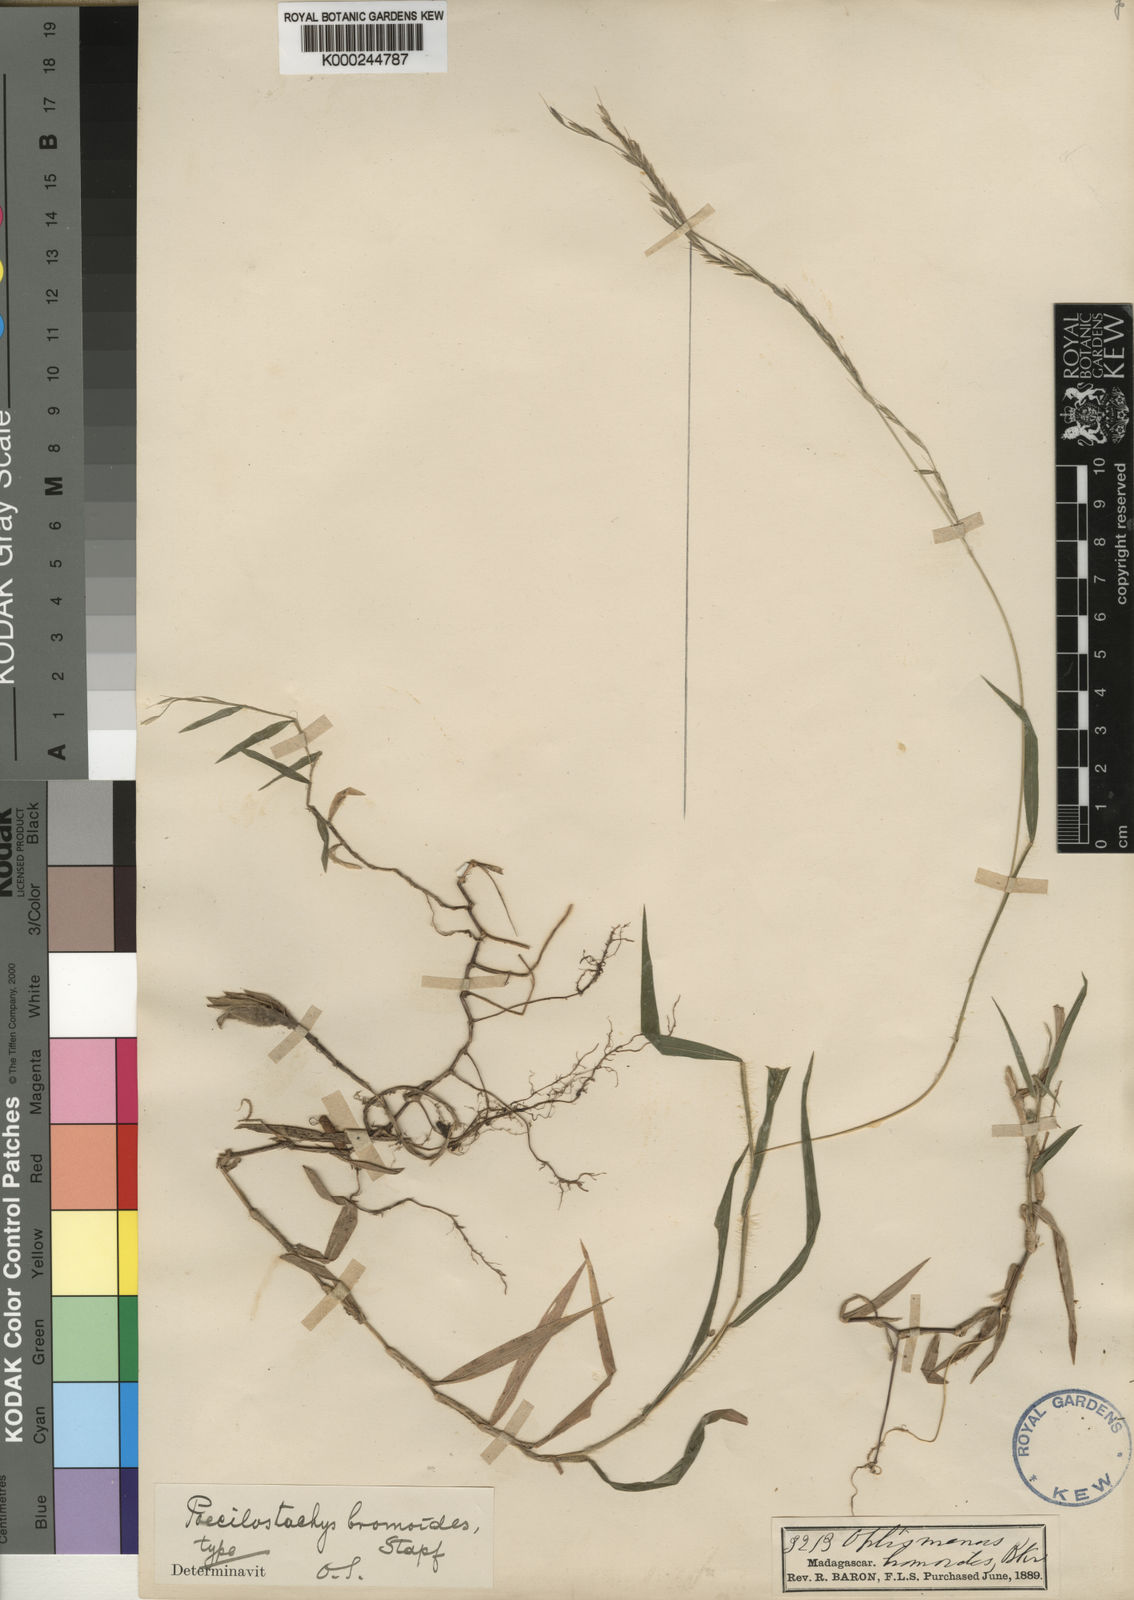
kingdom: Plantae
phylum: Tracheophyta
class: Liliopsida
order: Poales
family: Poaceae
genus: Poecilostachys
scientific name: Poecilostachys bakeri
